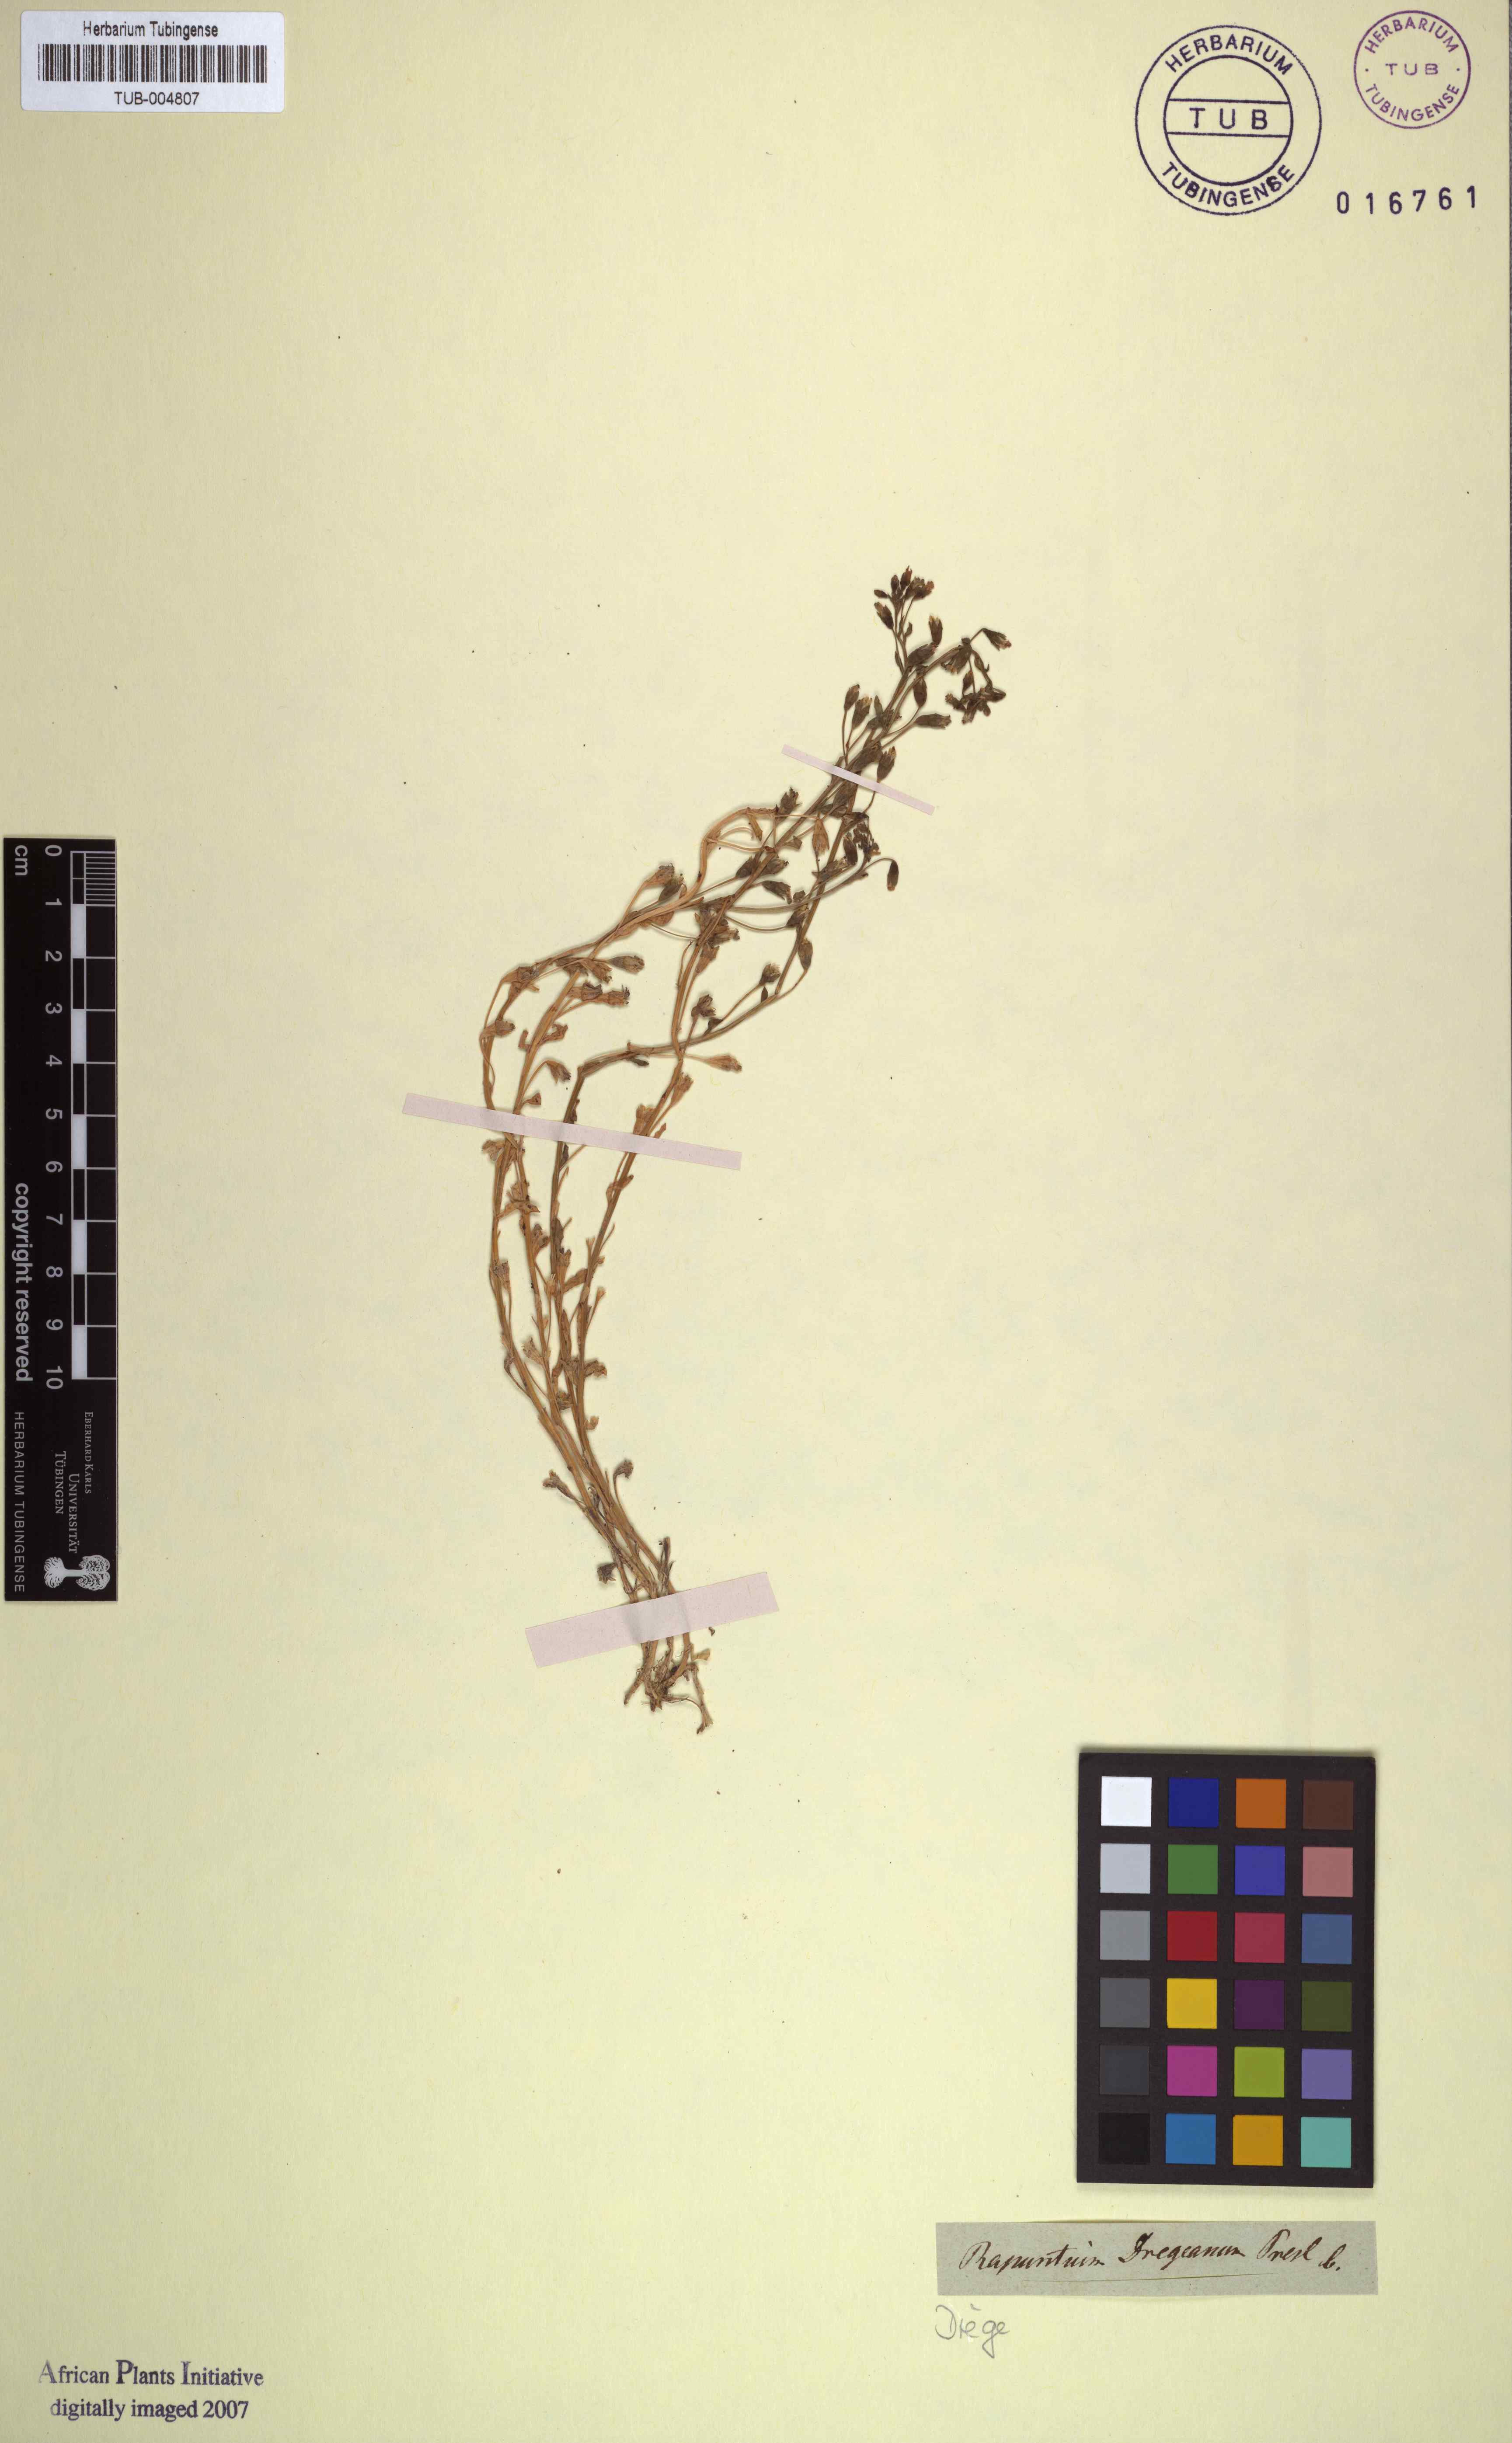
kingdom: Plantae
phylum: Tracheophyta
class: Magnoliopsida
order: Asterales
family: Campanulaceae
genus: Lobelia
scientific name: Lobelia dregeana
